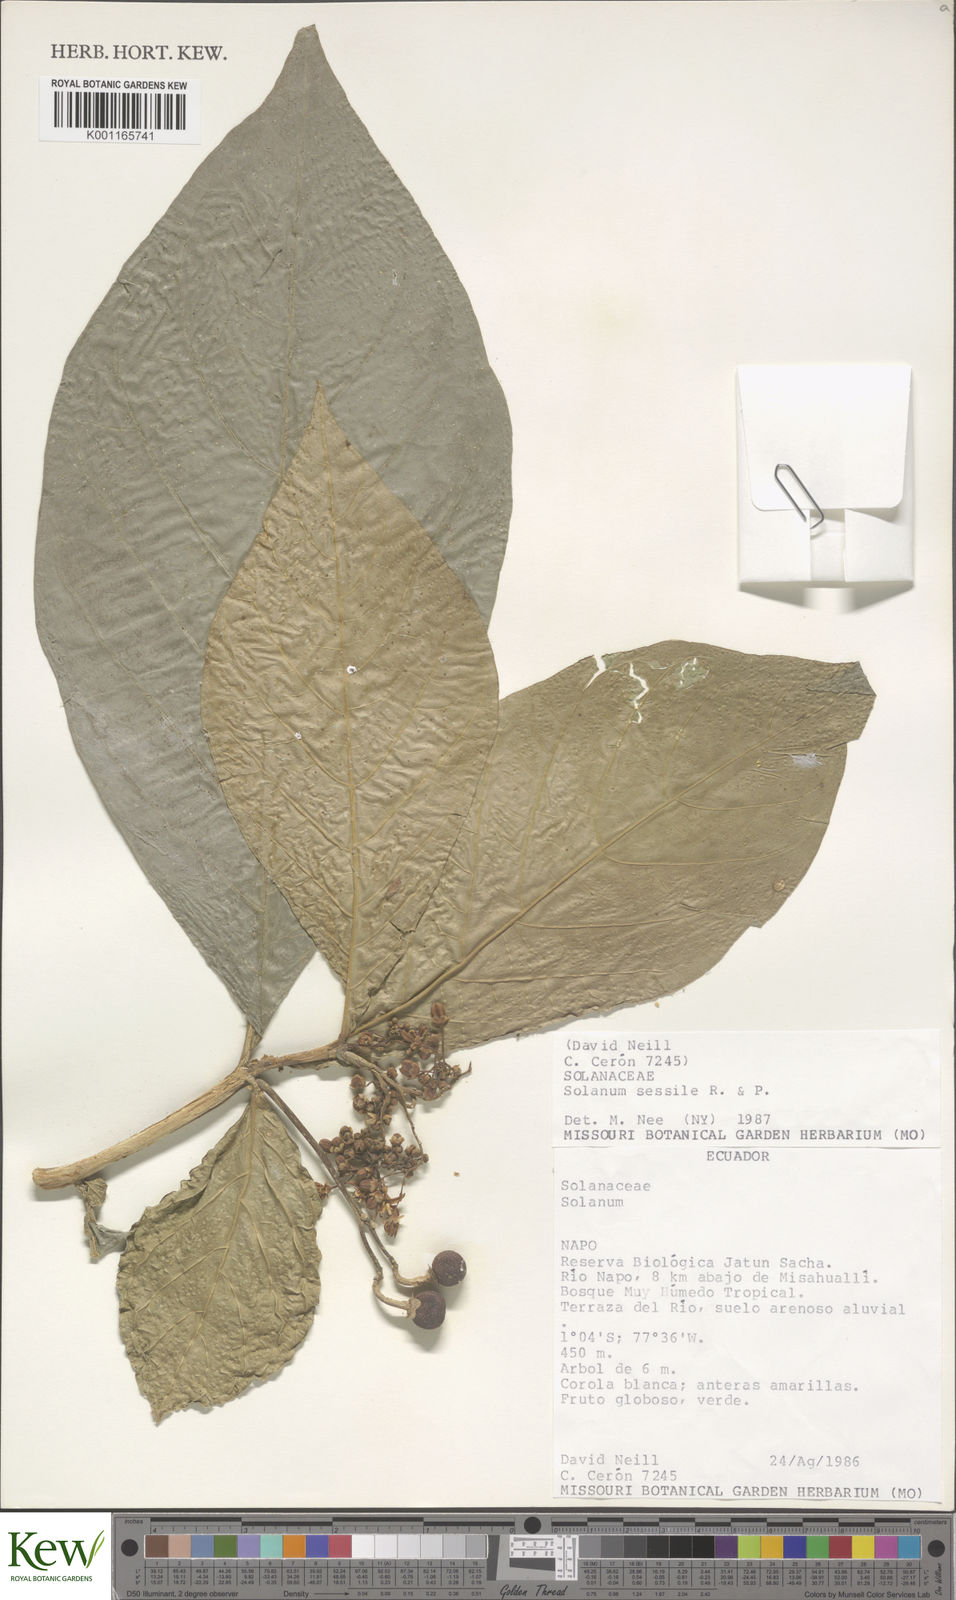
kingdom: Plantae
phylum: Tracheophyta
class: Magnoliopsida
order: Solanales
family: Solanaceae
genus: Solanum
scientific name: Solanum sessile
